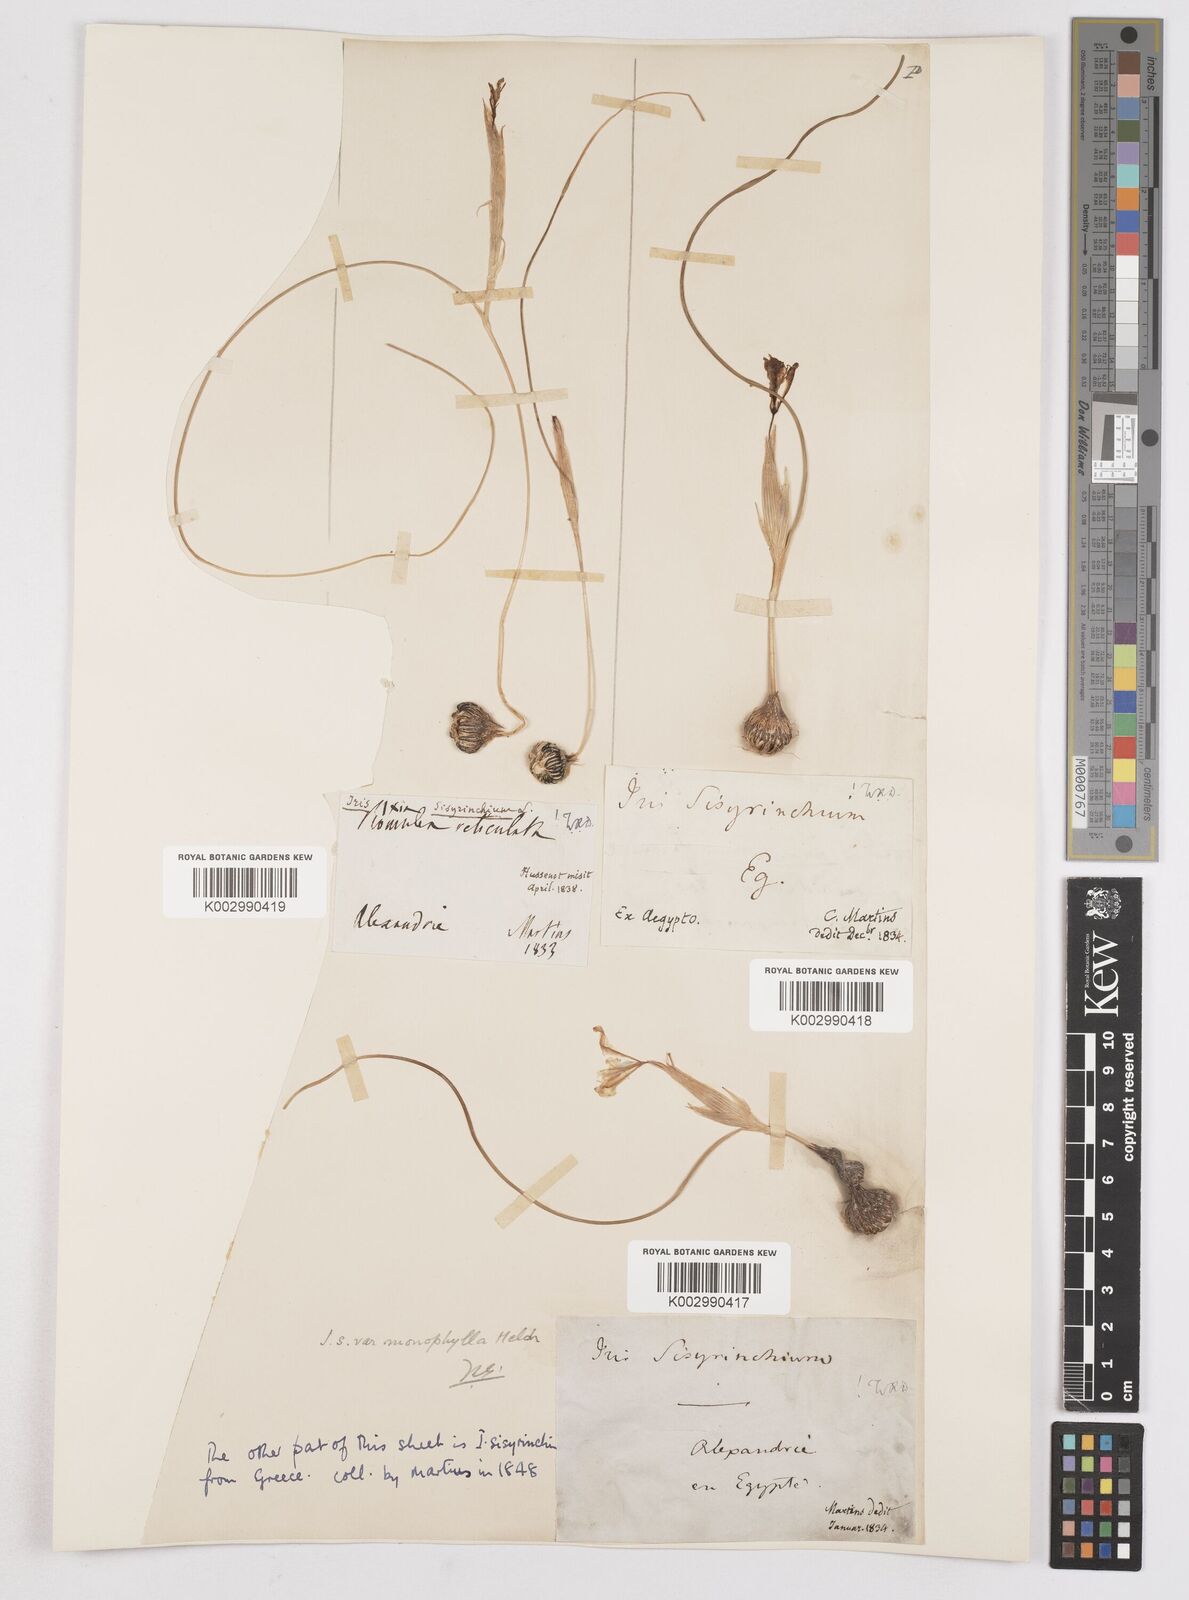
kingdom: Plantae
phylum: Tracheophyta
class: Liliopsida
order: Asparagales
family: Iridaceae
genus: Moraea
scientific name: Moraea
